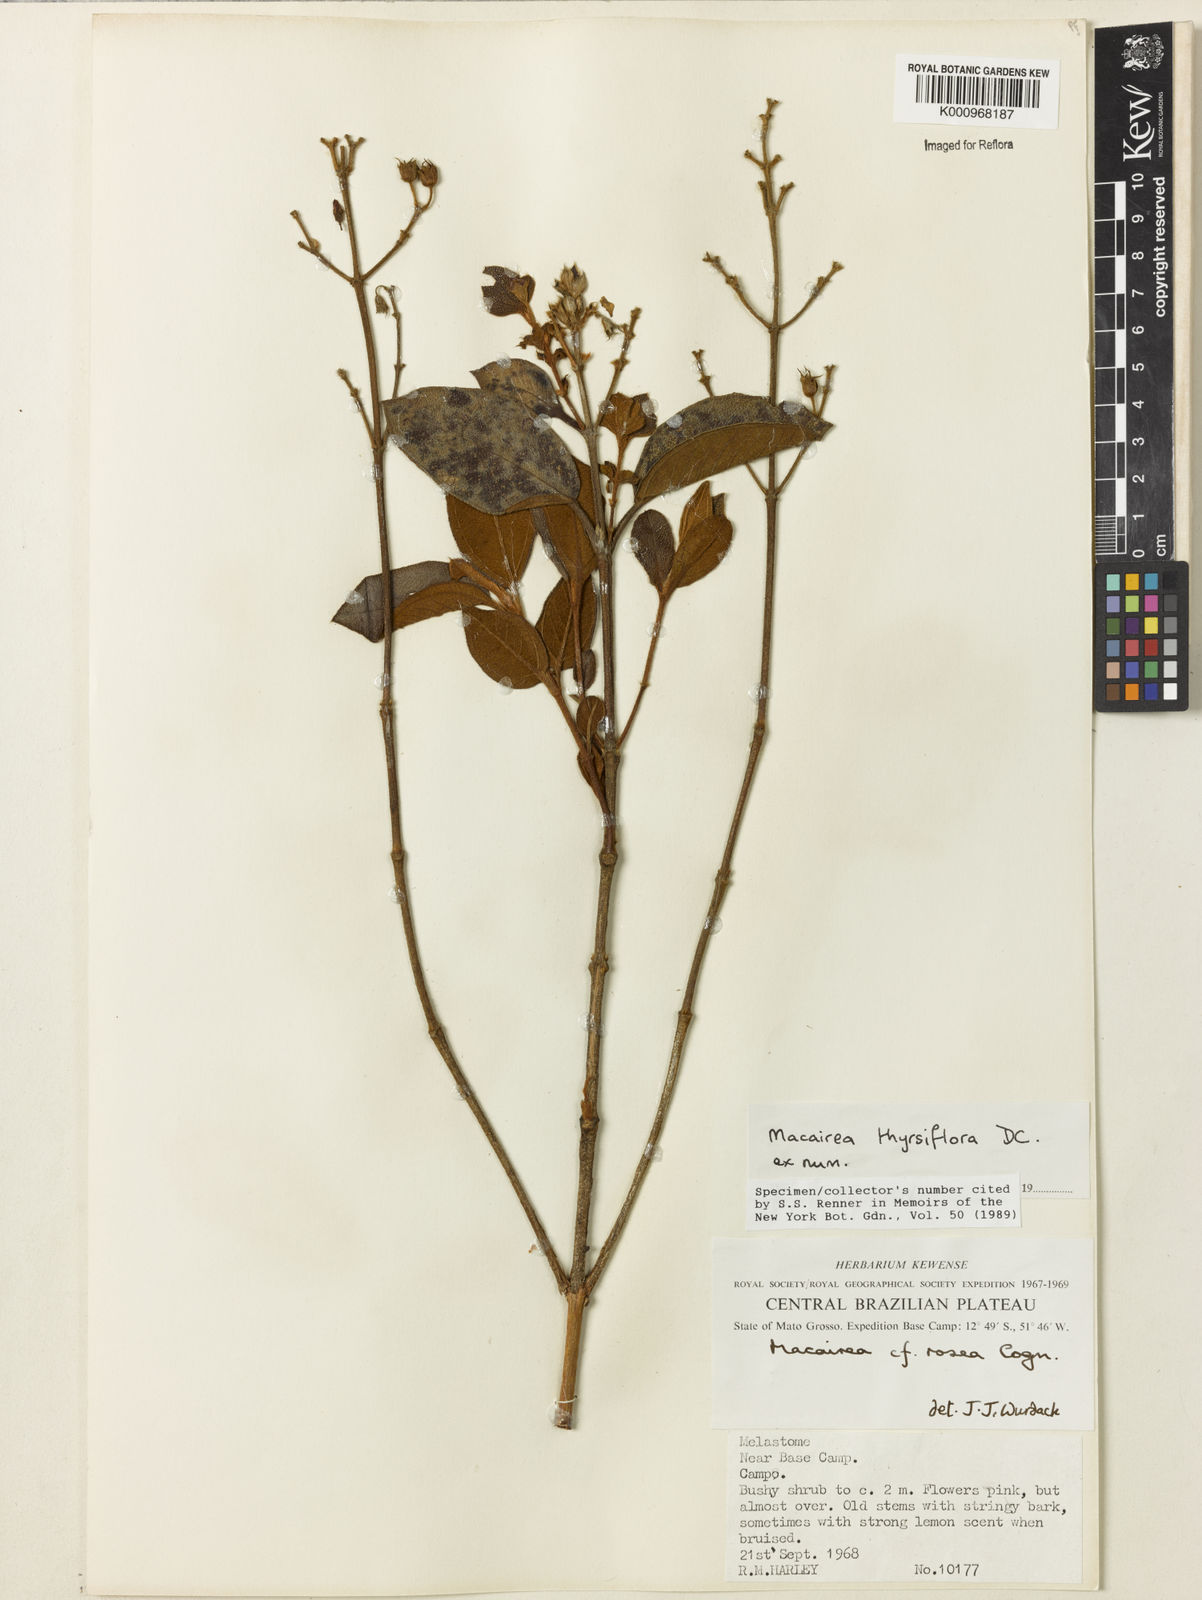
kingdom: Plantae
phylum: Tracheophyta
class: Magnoliopsida
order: Myrtales
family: Melastomataceae
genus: Macairea
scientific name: Macairea thyrsiflora
